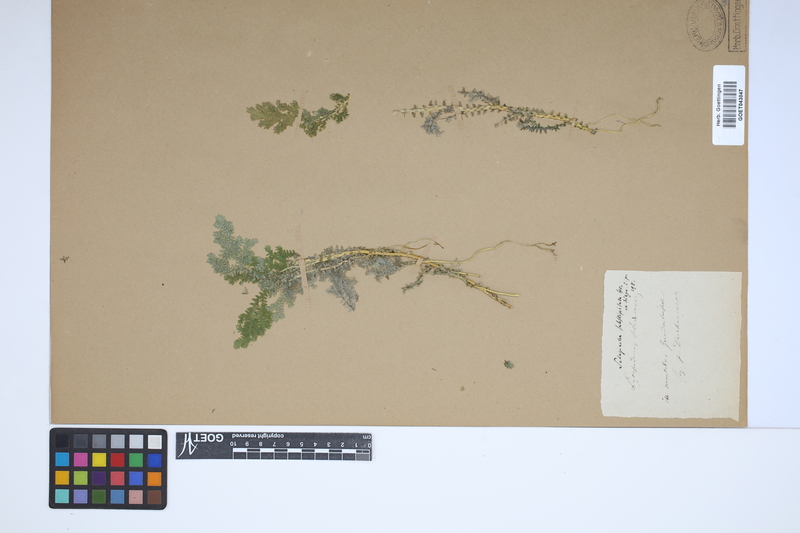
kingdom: Plantae
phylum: Tracheophyta
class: Lycopodiopsida
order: Selaginellales
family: Selaginellaceae
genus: Selaginella
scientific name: Selaginella substipitata
